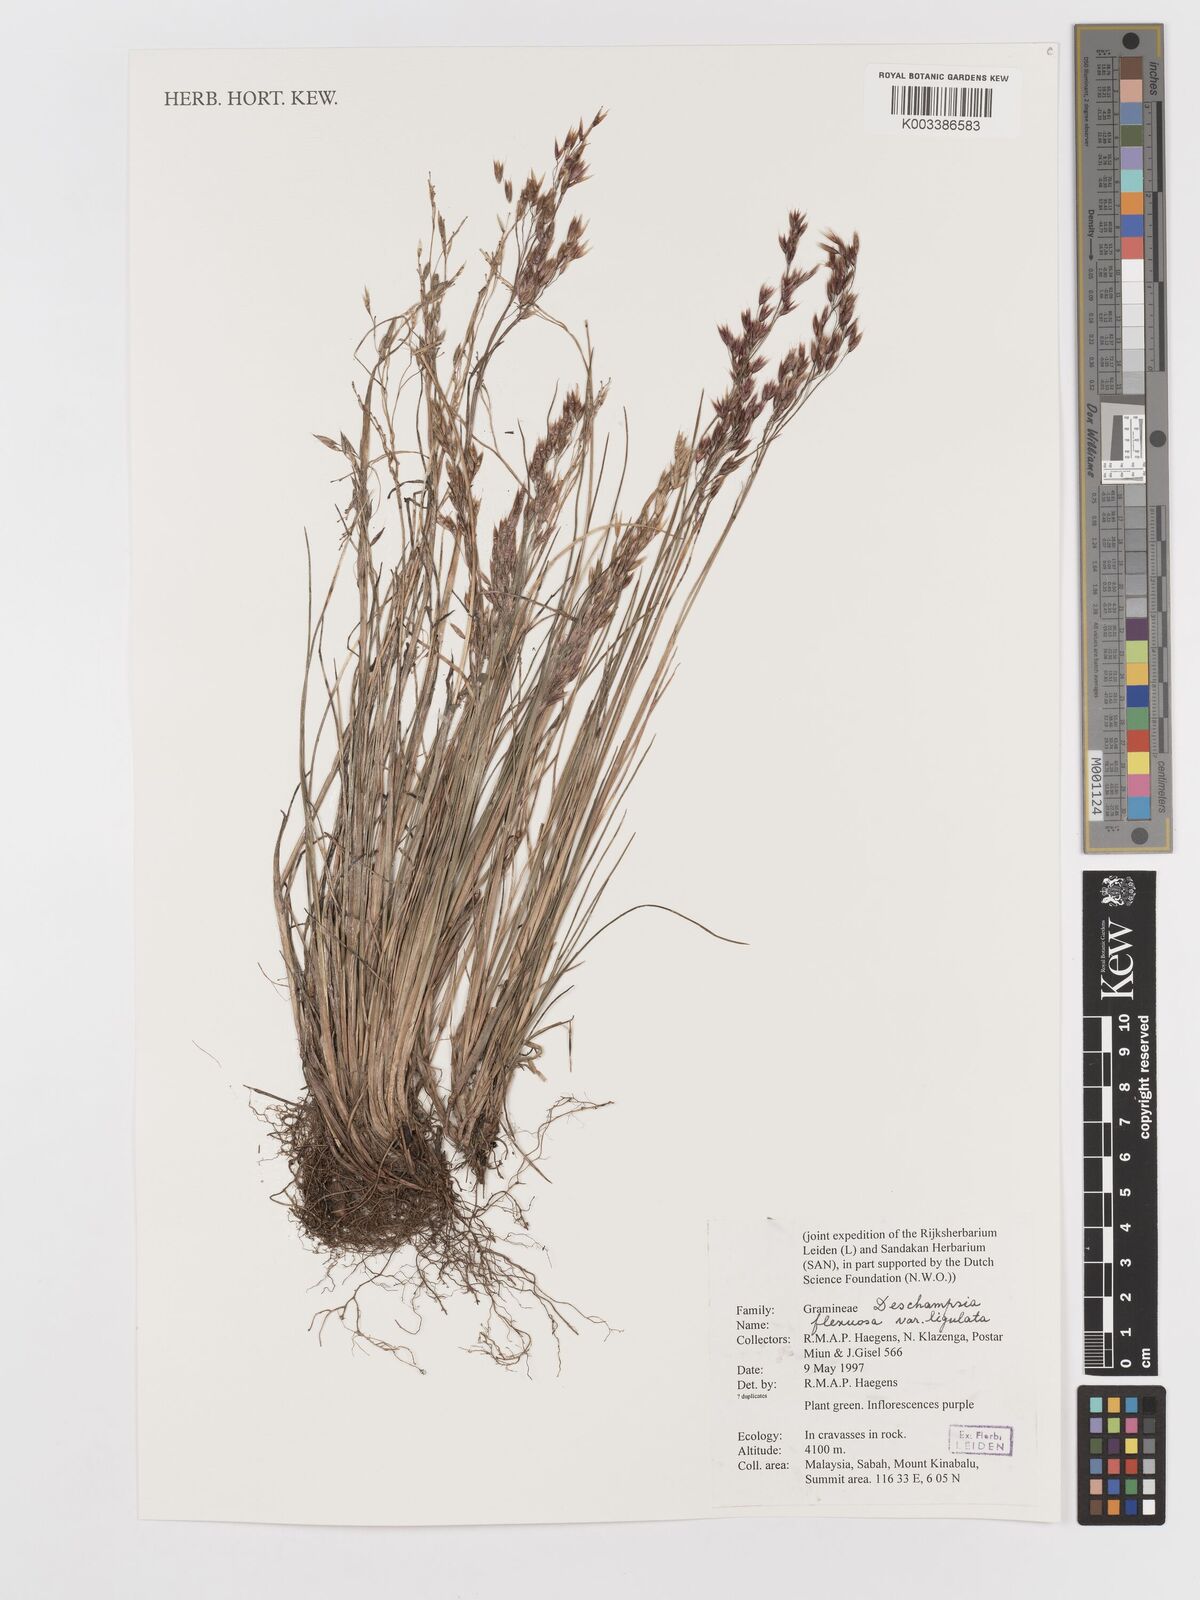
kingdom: Plantae
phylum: Tracheophyta
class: Liliopsida
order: Poales
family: Poaceae
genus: Avenella
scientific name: Avenella flexuosa
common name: Wavy hairgrass
